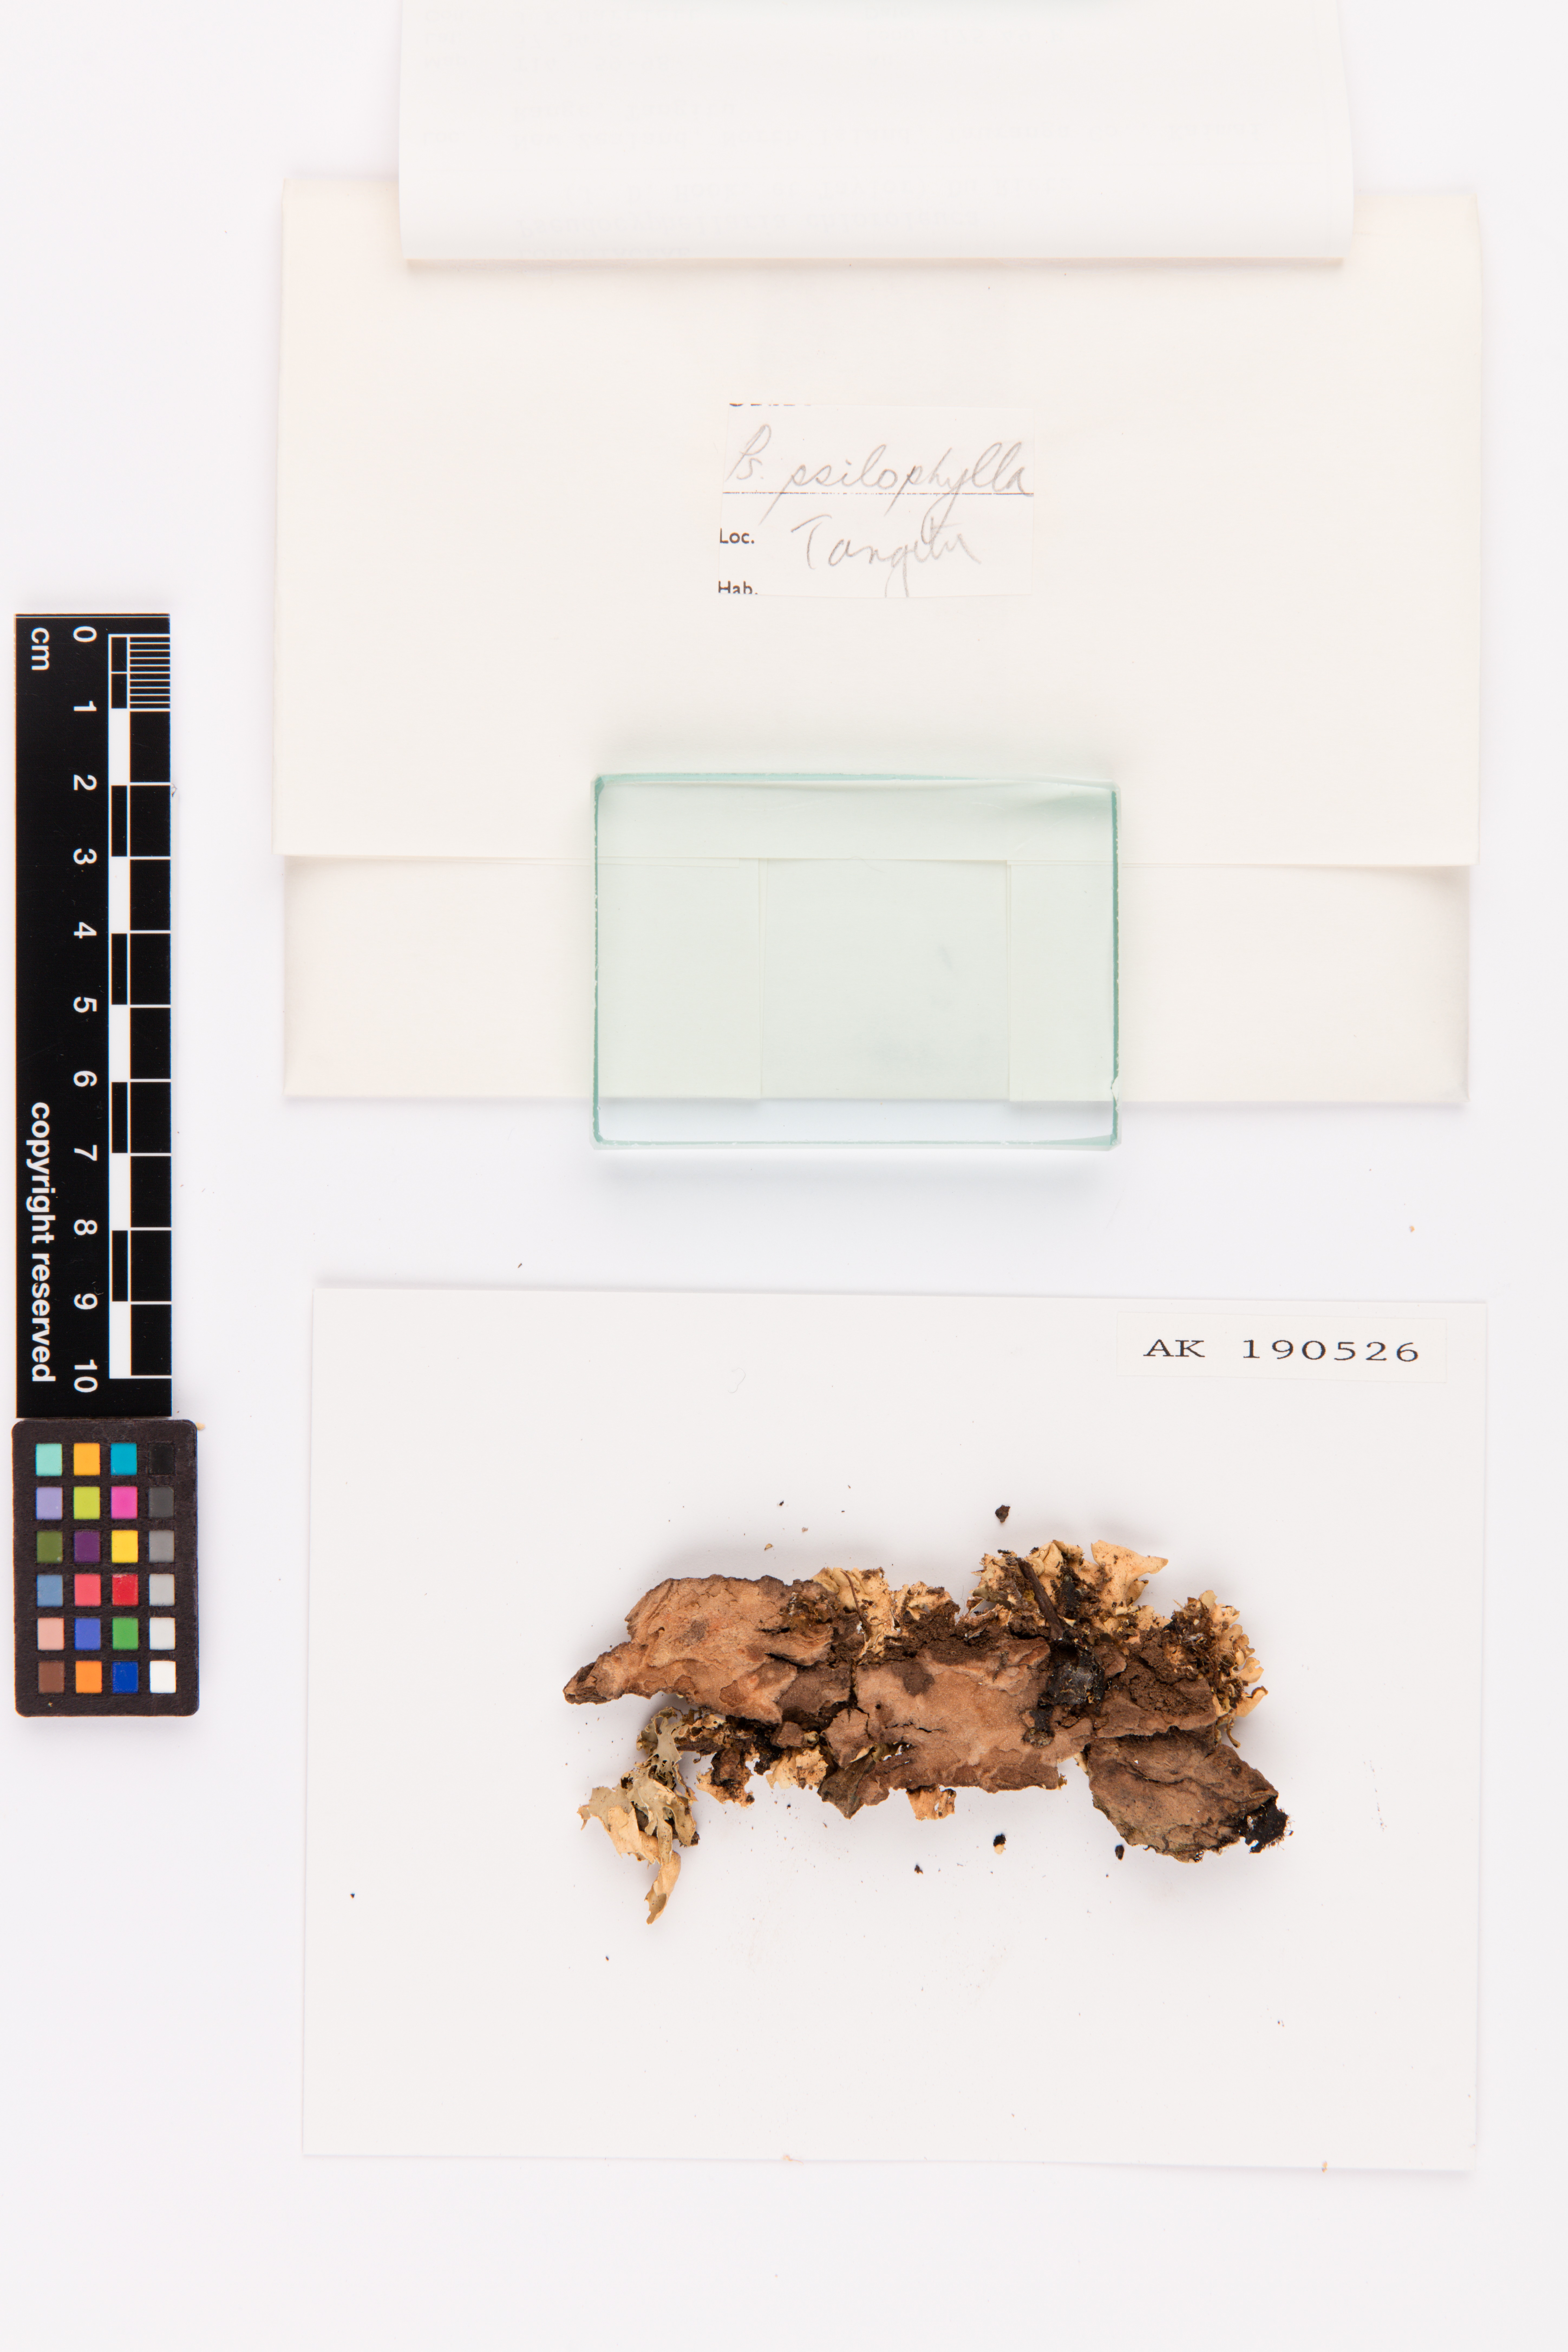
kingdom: Fungi
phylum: Ascomycota
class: Lecanoromycetes
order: Peltigerales
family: Lobariaceae
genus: Pseudocyphellaria
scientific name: Pseudocyphellaria chloroleuca
